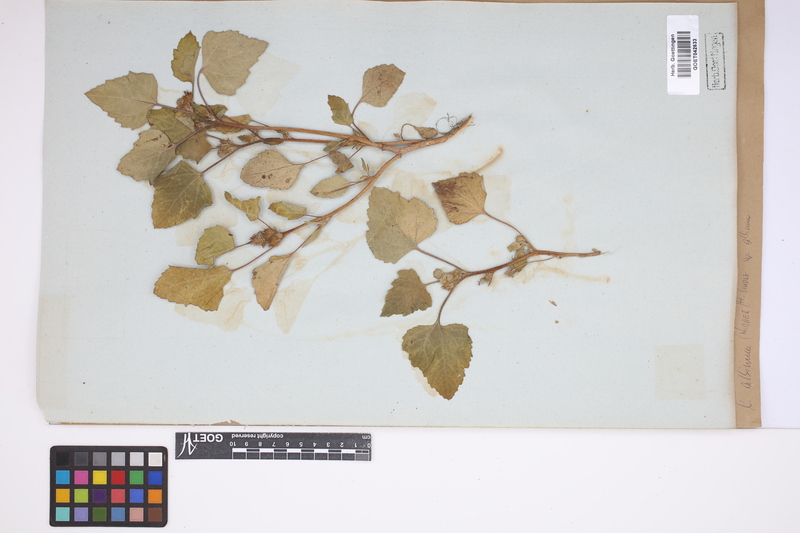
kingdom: Plantae
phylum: Tracheophyta
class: Magnoliopsida
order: Asterales
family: Asteraceae
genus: Xanthium
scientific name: Xanthium orientale
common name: Californian burr
